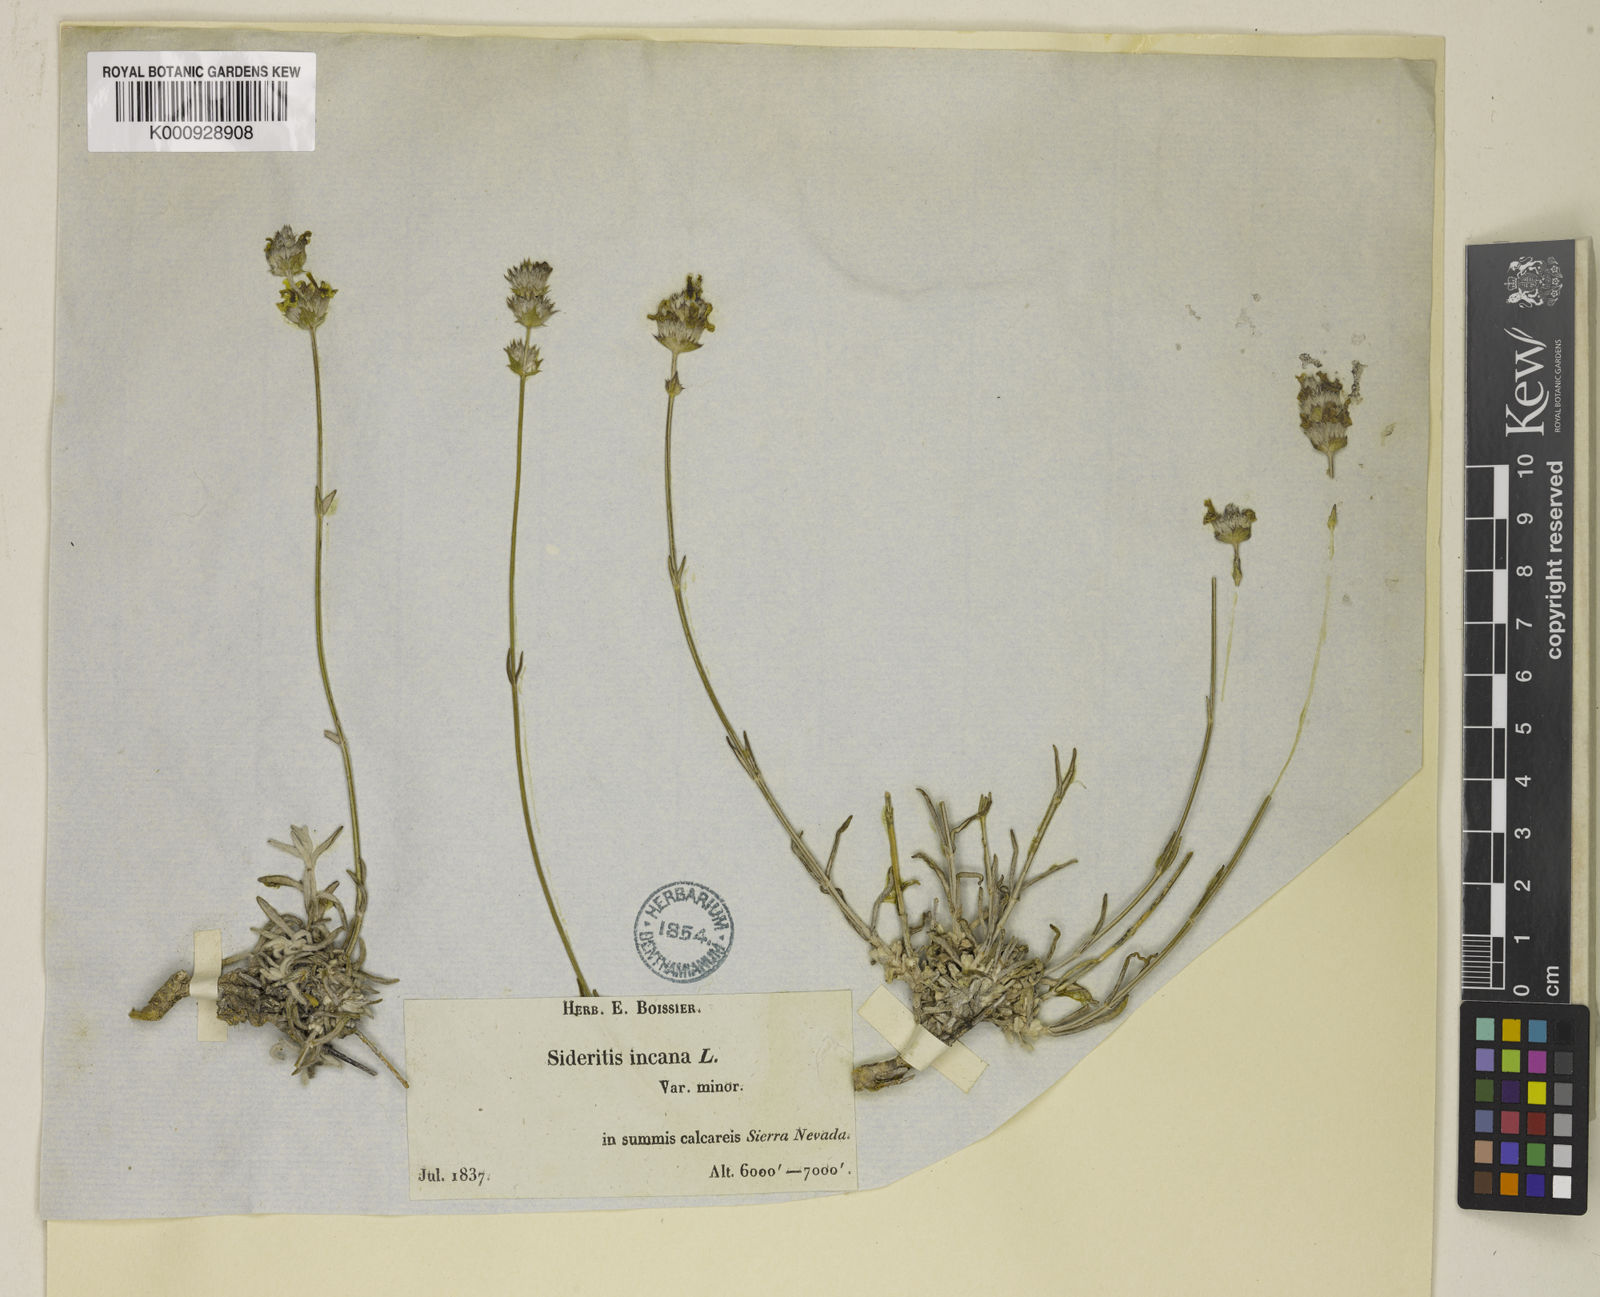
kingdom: Plantae
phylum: Tracheophyta
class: Magnoliopsida
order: Lamiales
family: Lamiaceae
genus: Sideritis
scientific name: Sideritis incana
